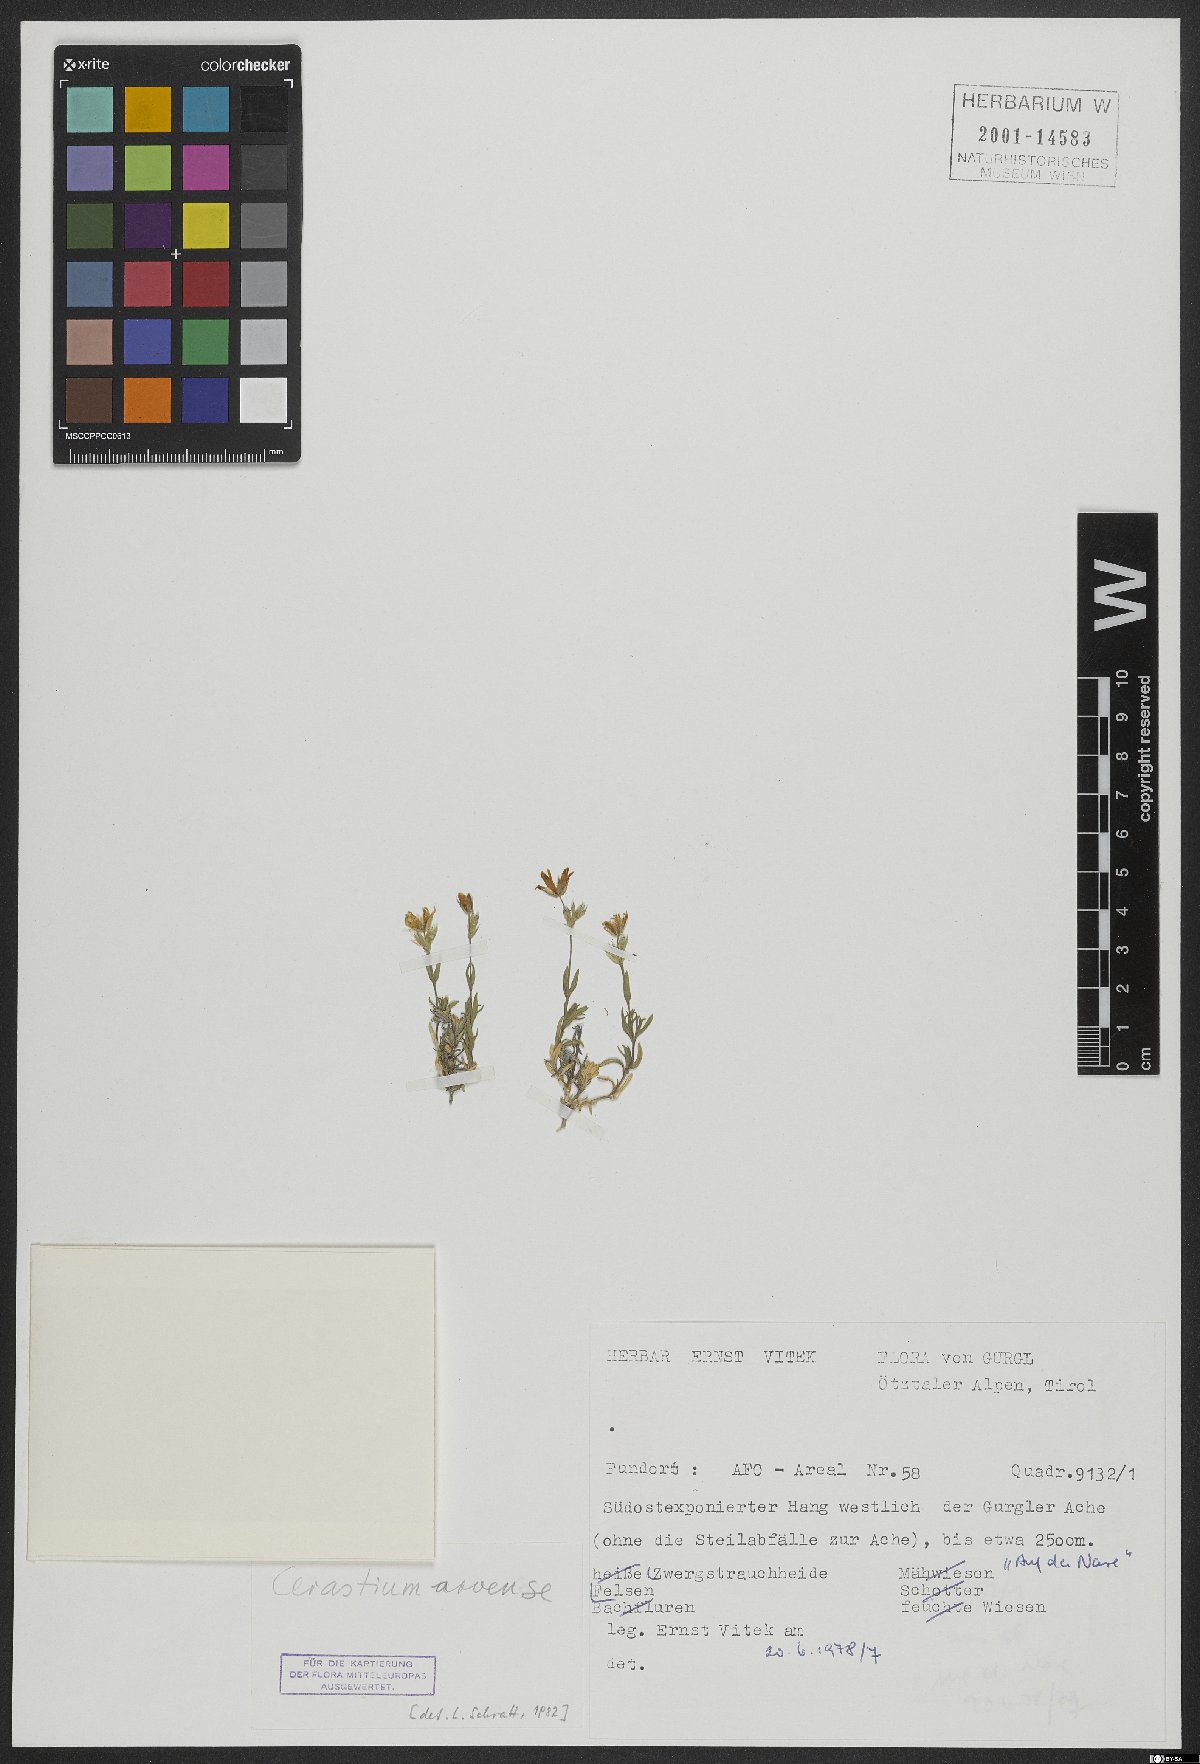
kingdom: Plantae
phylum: Tracheophyta
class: Magnoliopsida
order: Caryophyllales
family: Caryophyllaceae
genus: Cerastium
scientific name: Cerastium arvense
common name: Field mouse-ear
